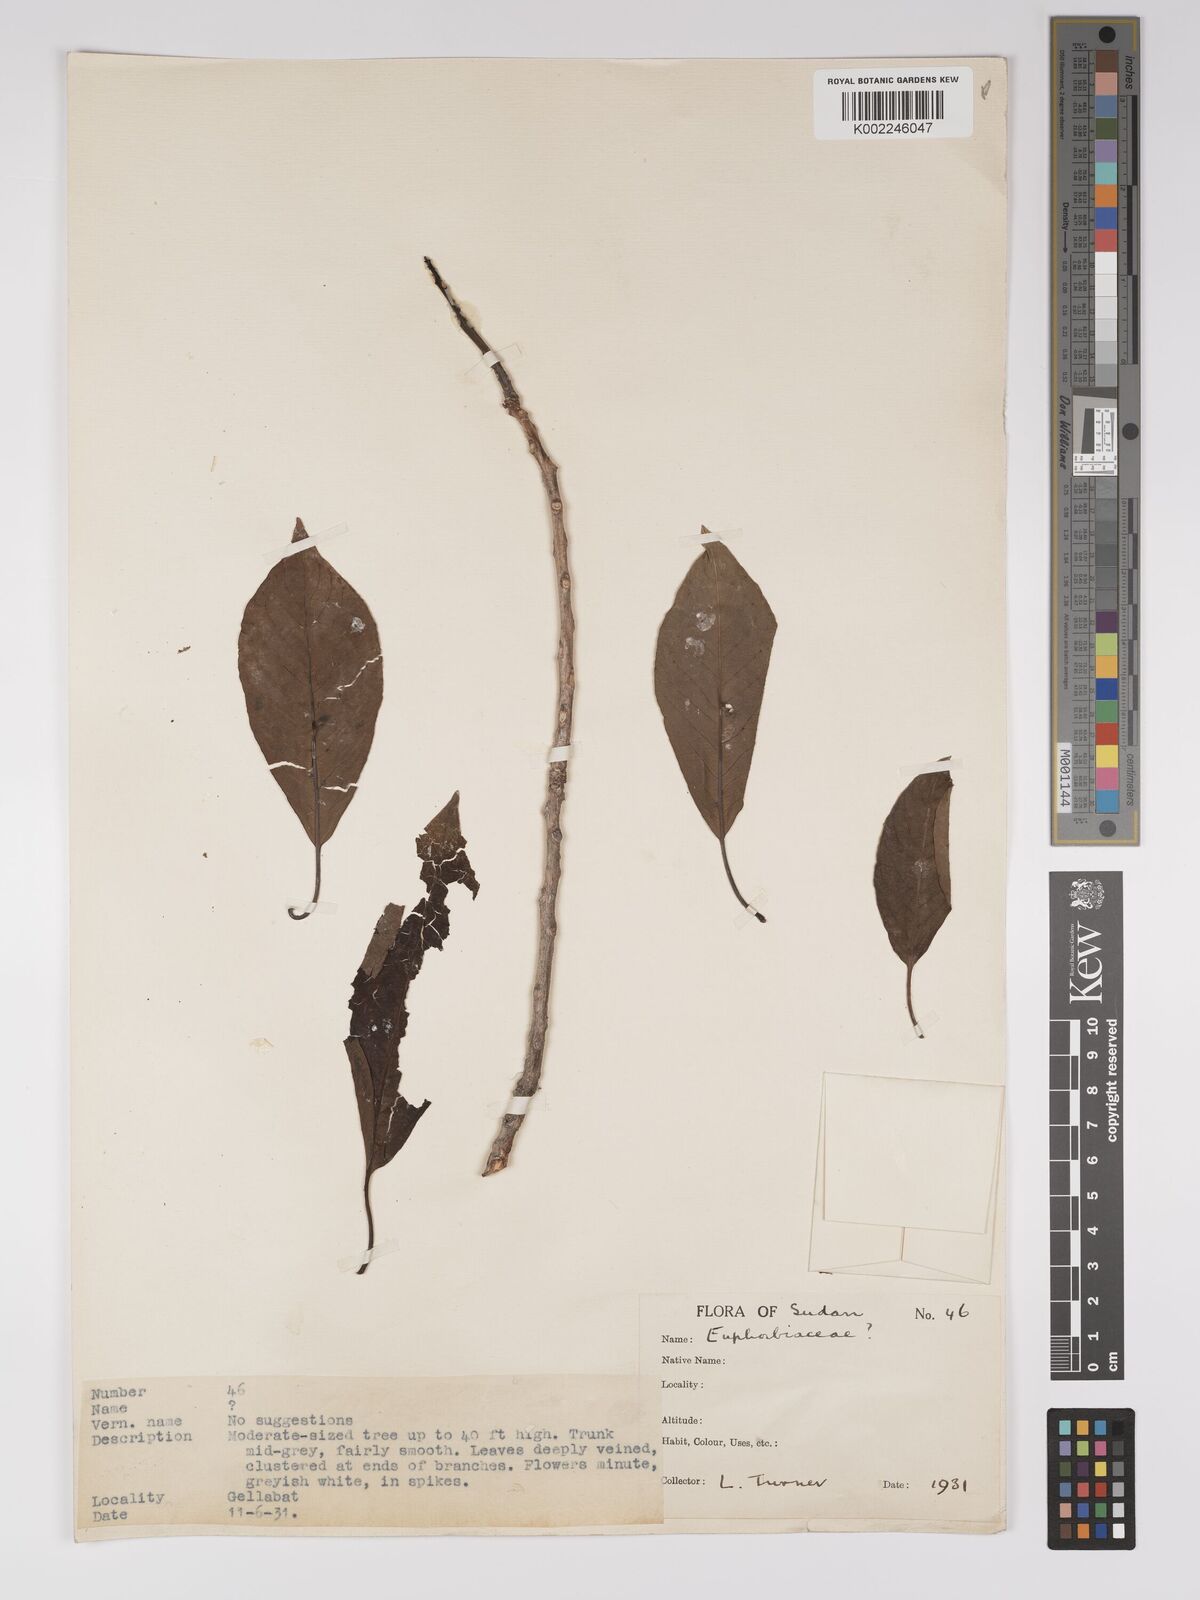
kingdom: Plantae
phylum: Tracheophyta
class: Magnoliopsida
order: Malpighiales
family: Euphorbiaceae
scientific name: Euphorbiaceae
